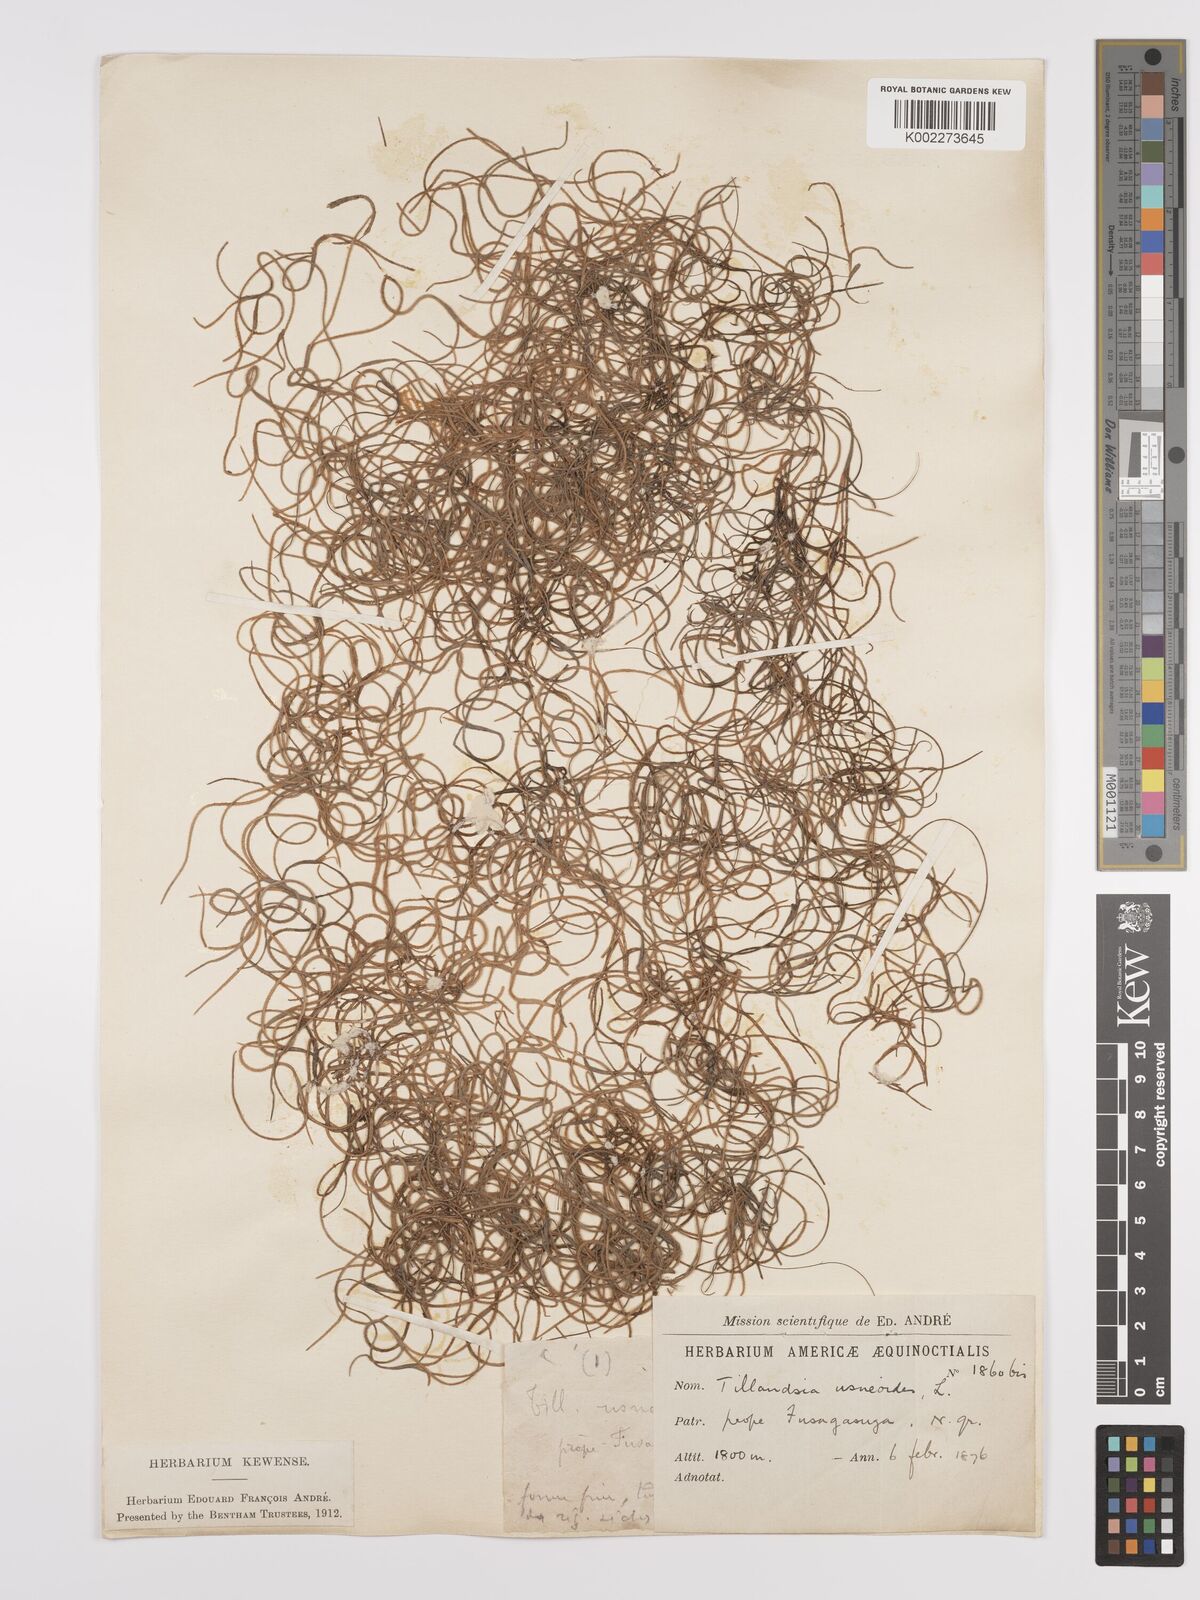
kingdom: Plantae
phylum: Tracheophyta
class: Liliopsida
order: Poales
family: Bromeliaceae
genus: Tillandsia
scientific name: Tillandsia usneoides
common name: Spanish moss
